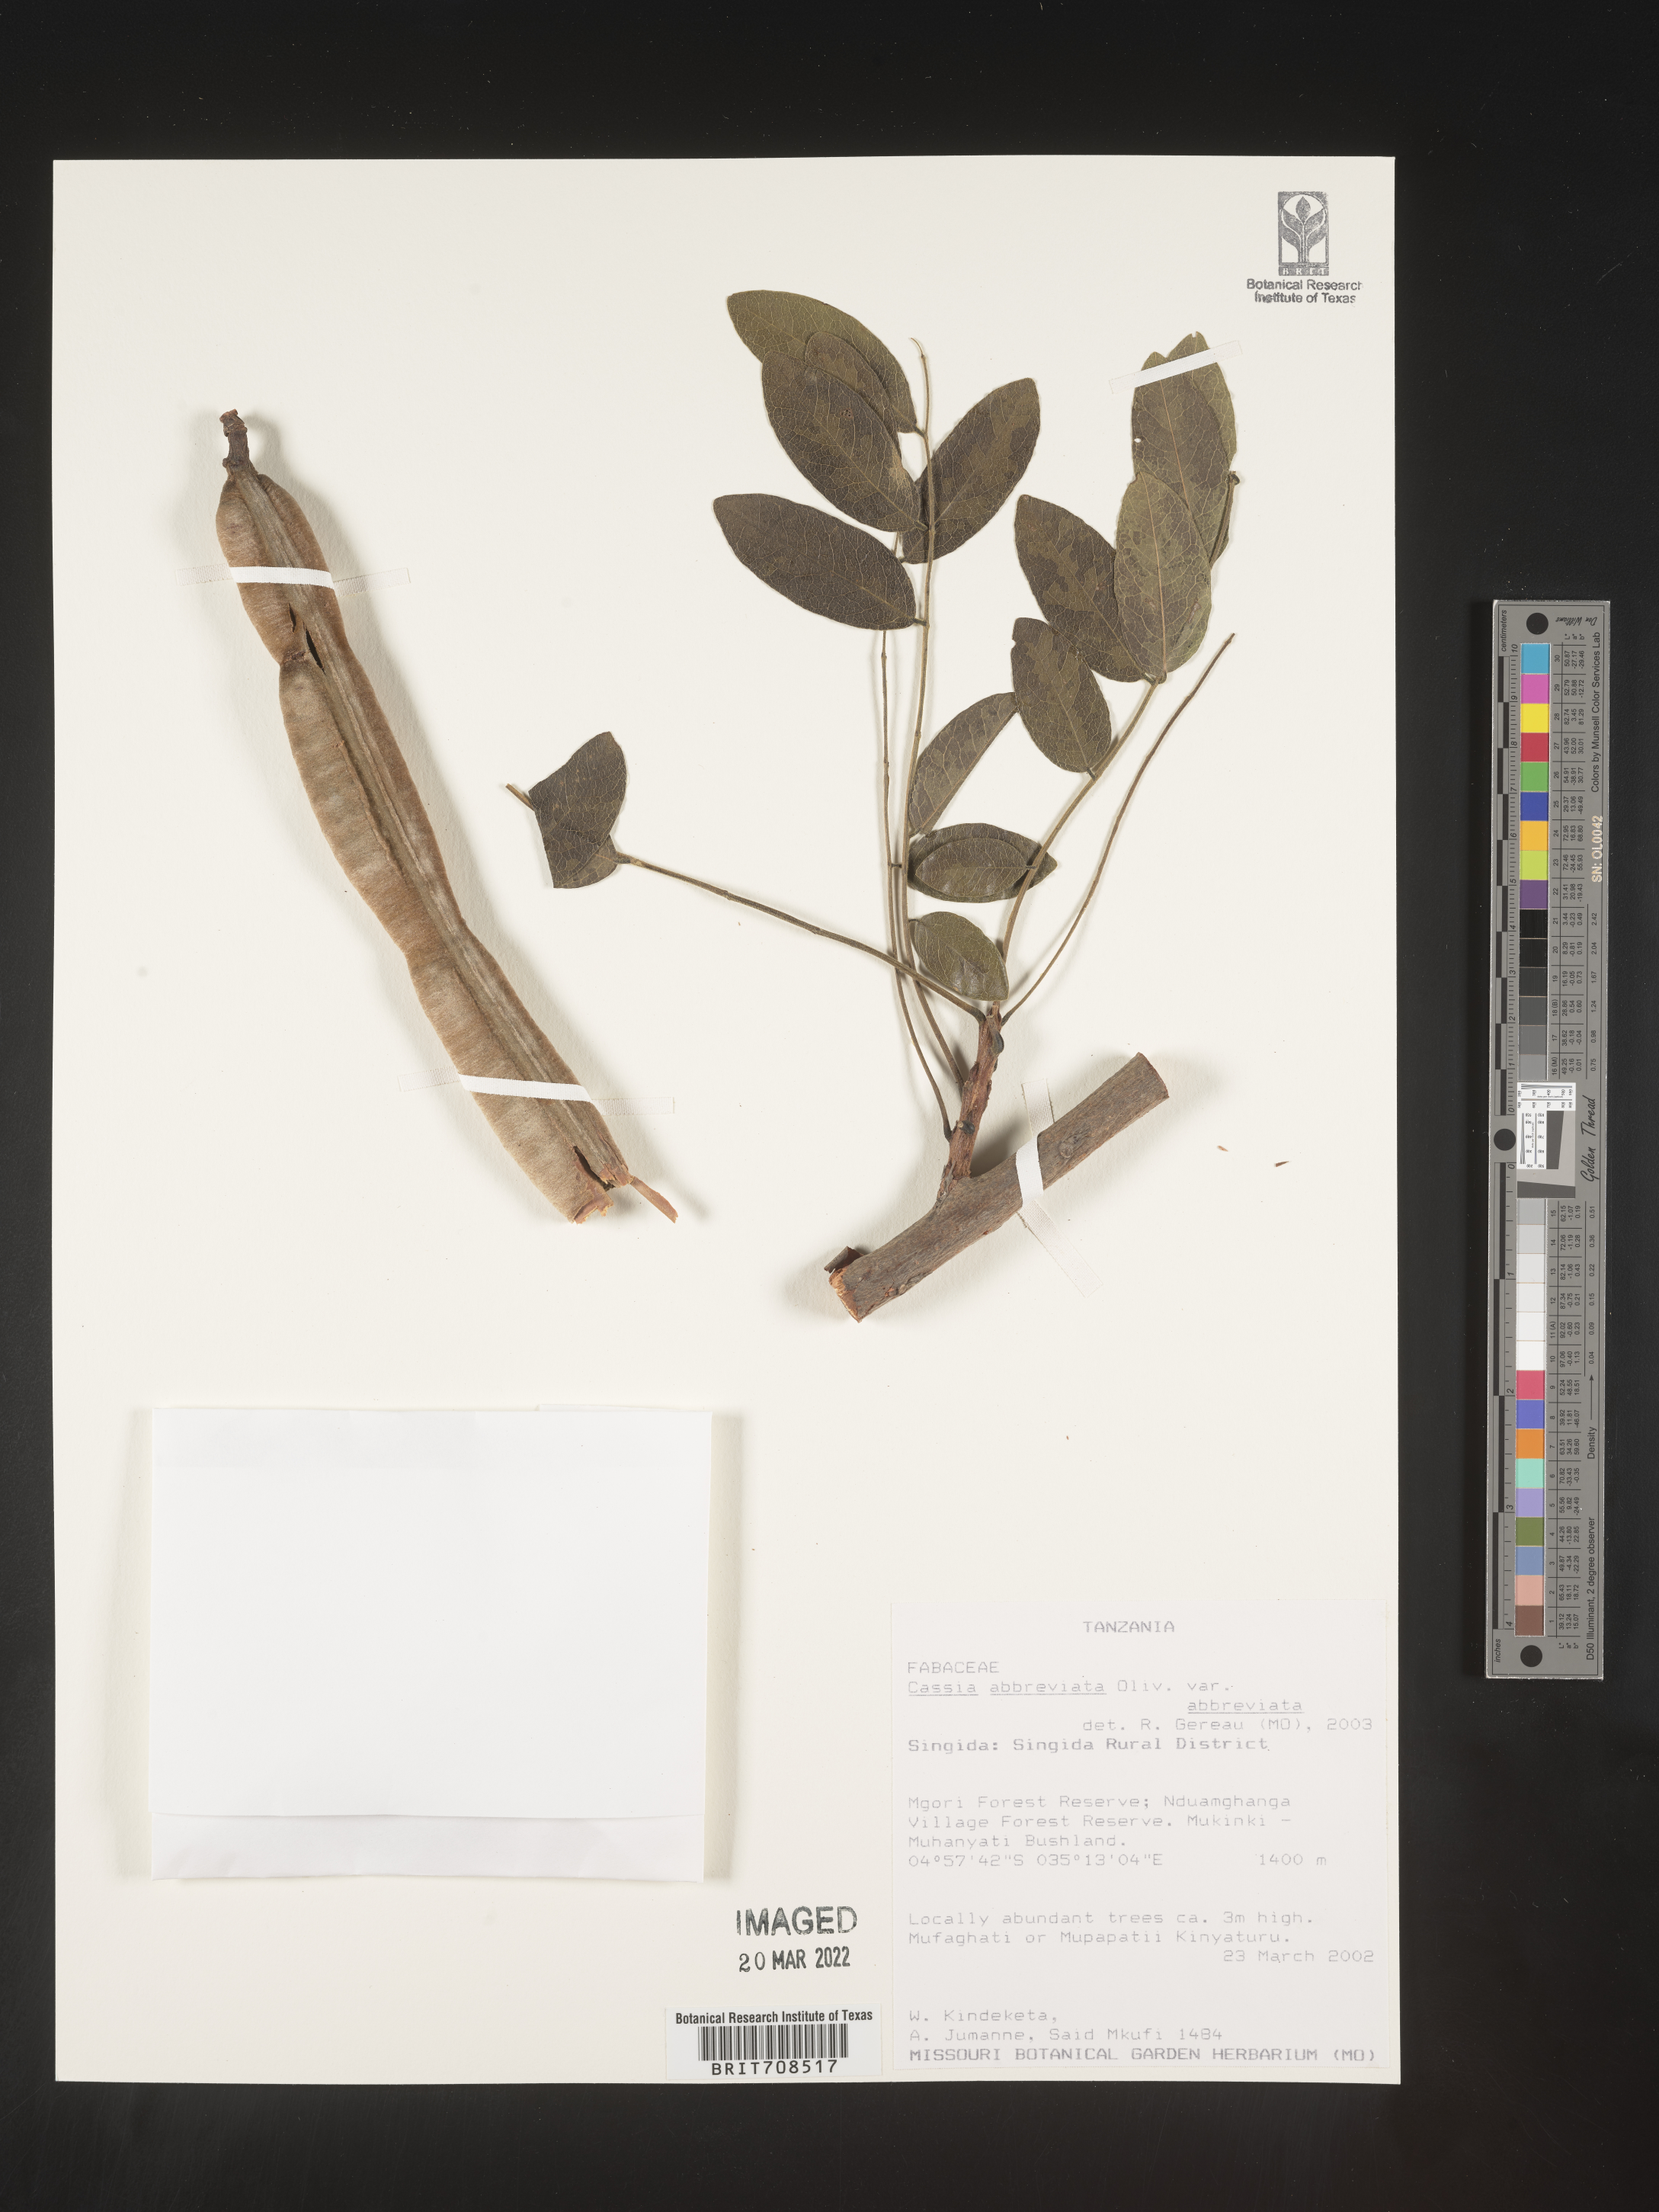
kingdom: Plantae
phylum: Tracheophyta
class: Magnoliopsida
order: Fabales
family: Fabaceae
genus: Cassia
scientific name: Cassia
